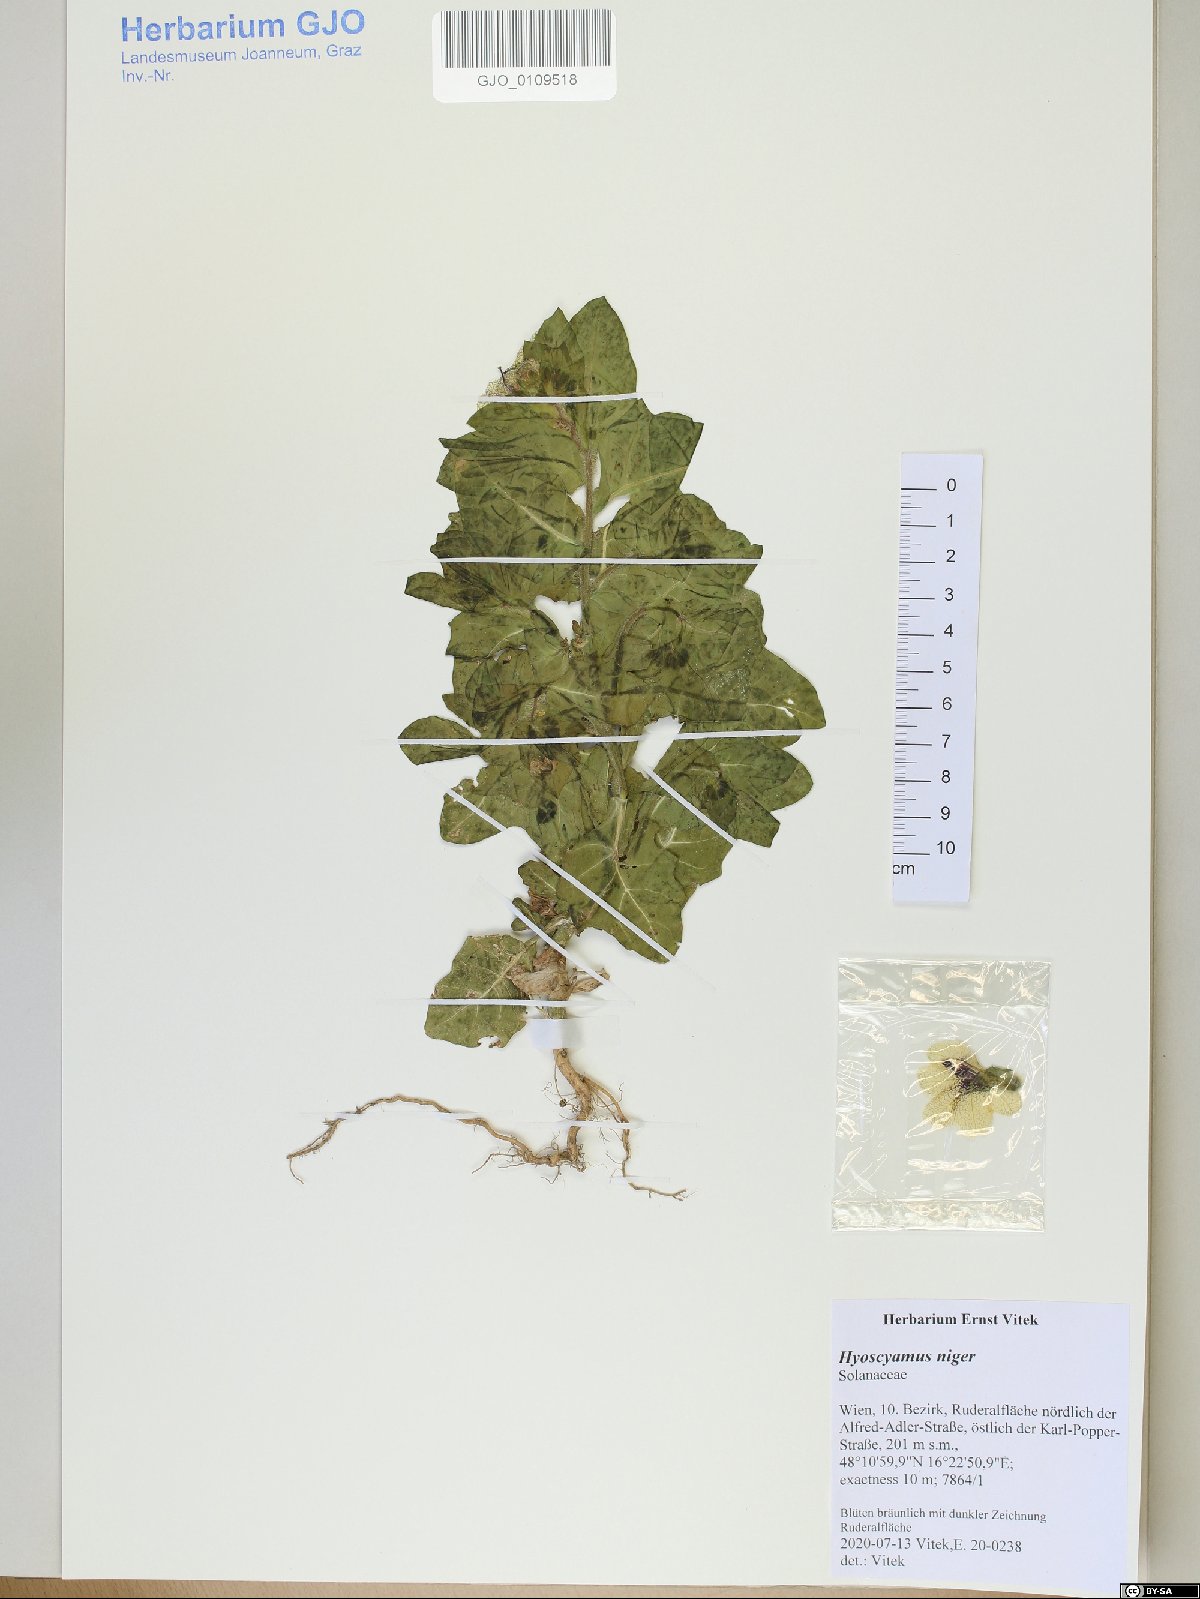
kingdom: Plantae
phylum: Tracheophyta
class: Magnoliopsida
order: Solanales
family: Solanaceae
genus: Hyoscyamus
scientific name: Hyoscyamus niger
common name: Henbane
